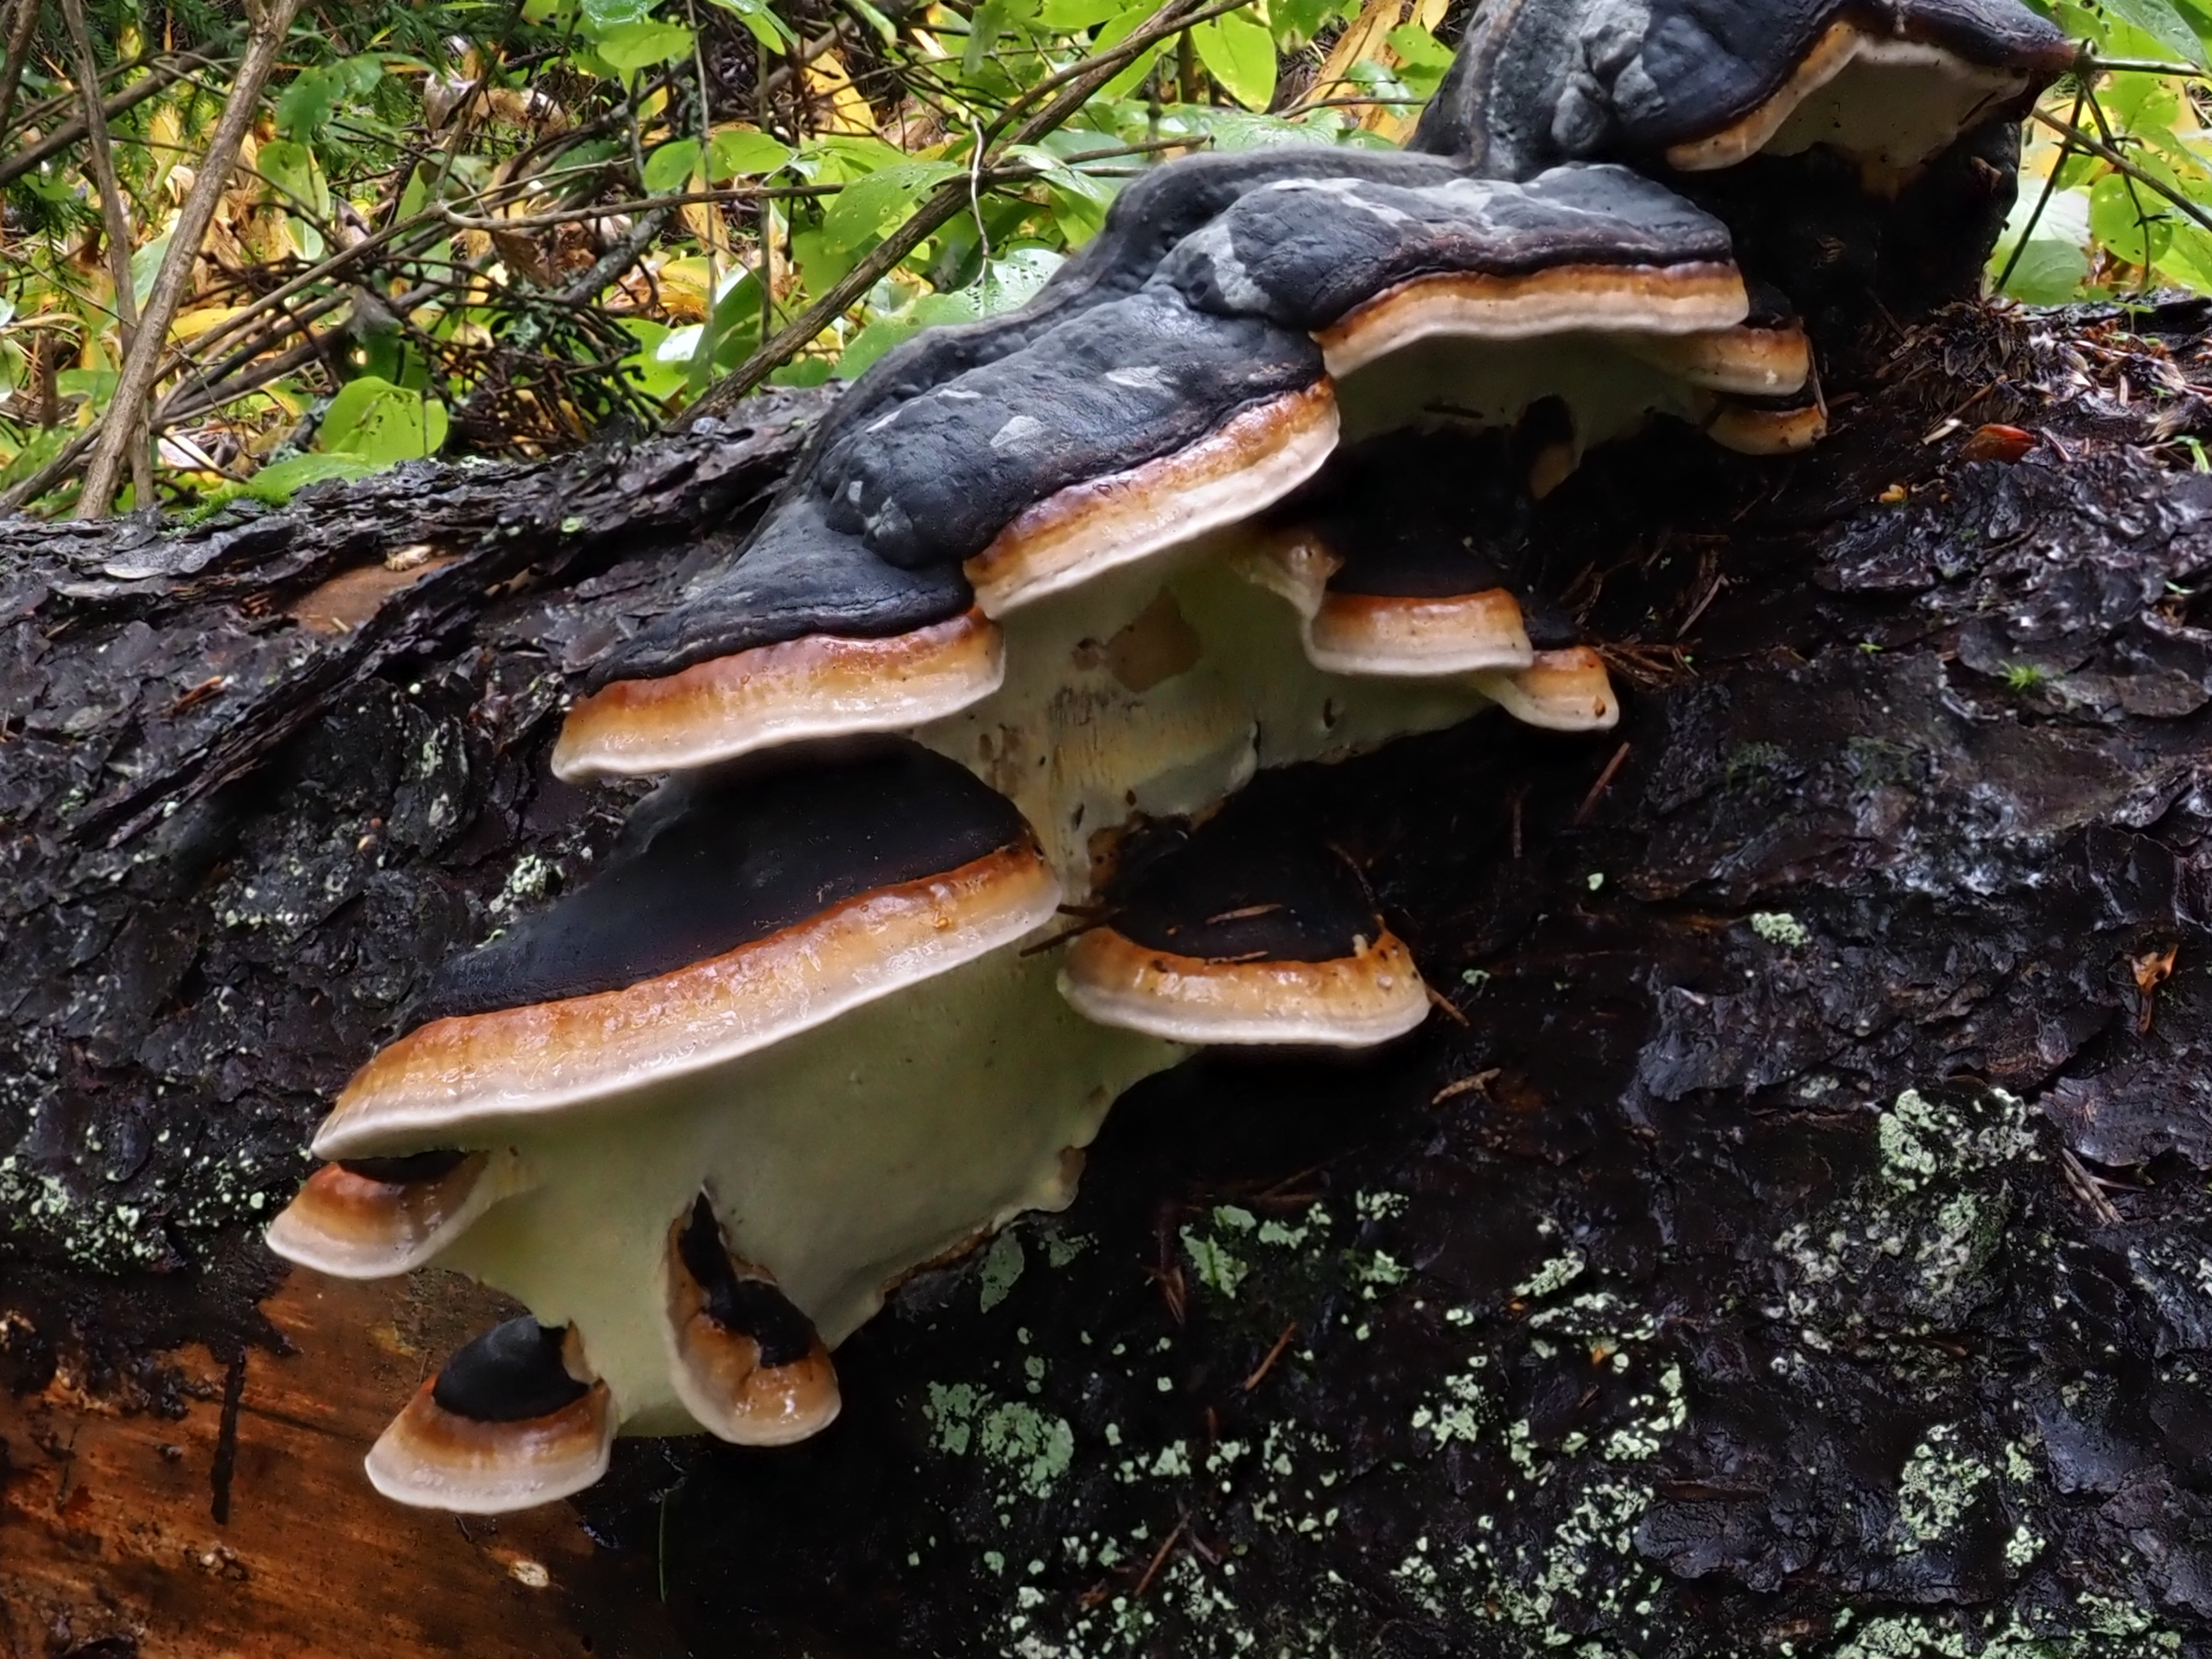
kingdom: Fungi
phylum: Basidiomycota
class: Agaricomycetes
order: Polyporales
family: Fomitopsidaceae
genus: Fomitopsis
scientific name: Fomitopsis pinicola
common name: Red-belted bracket
